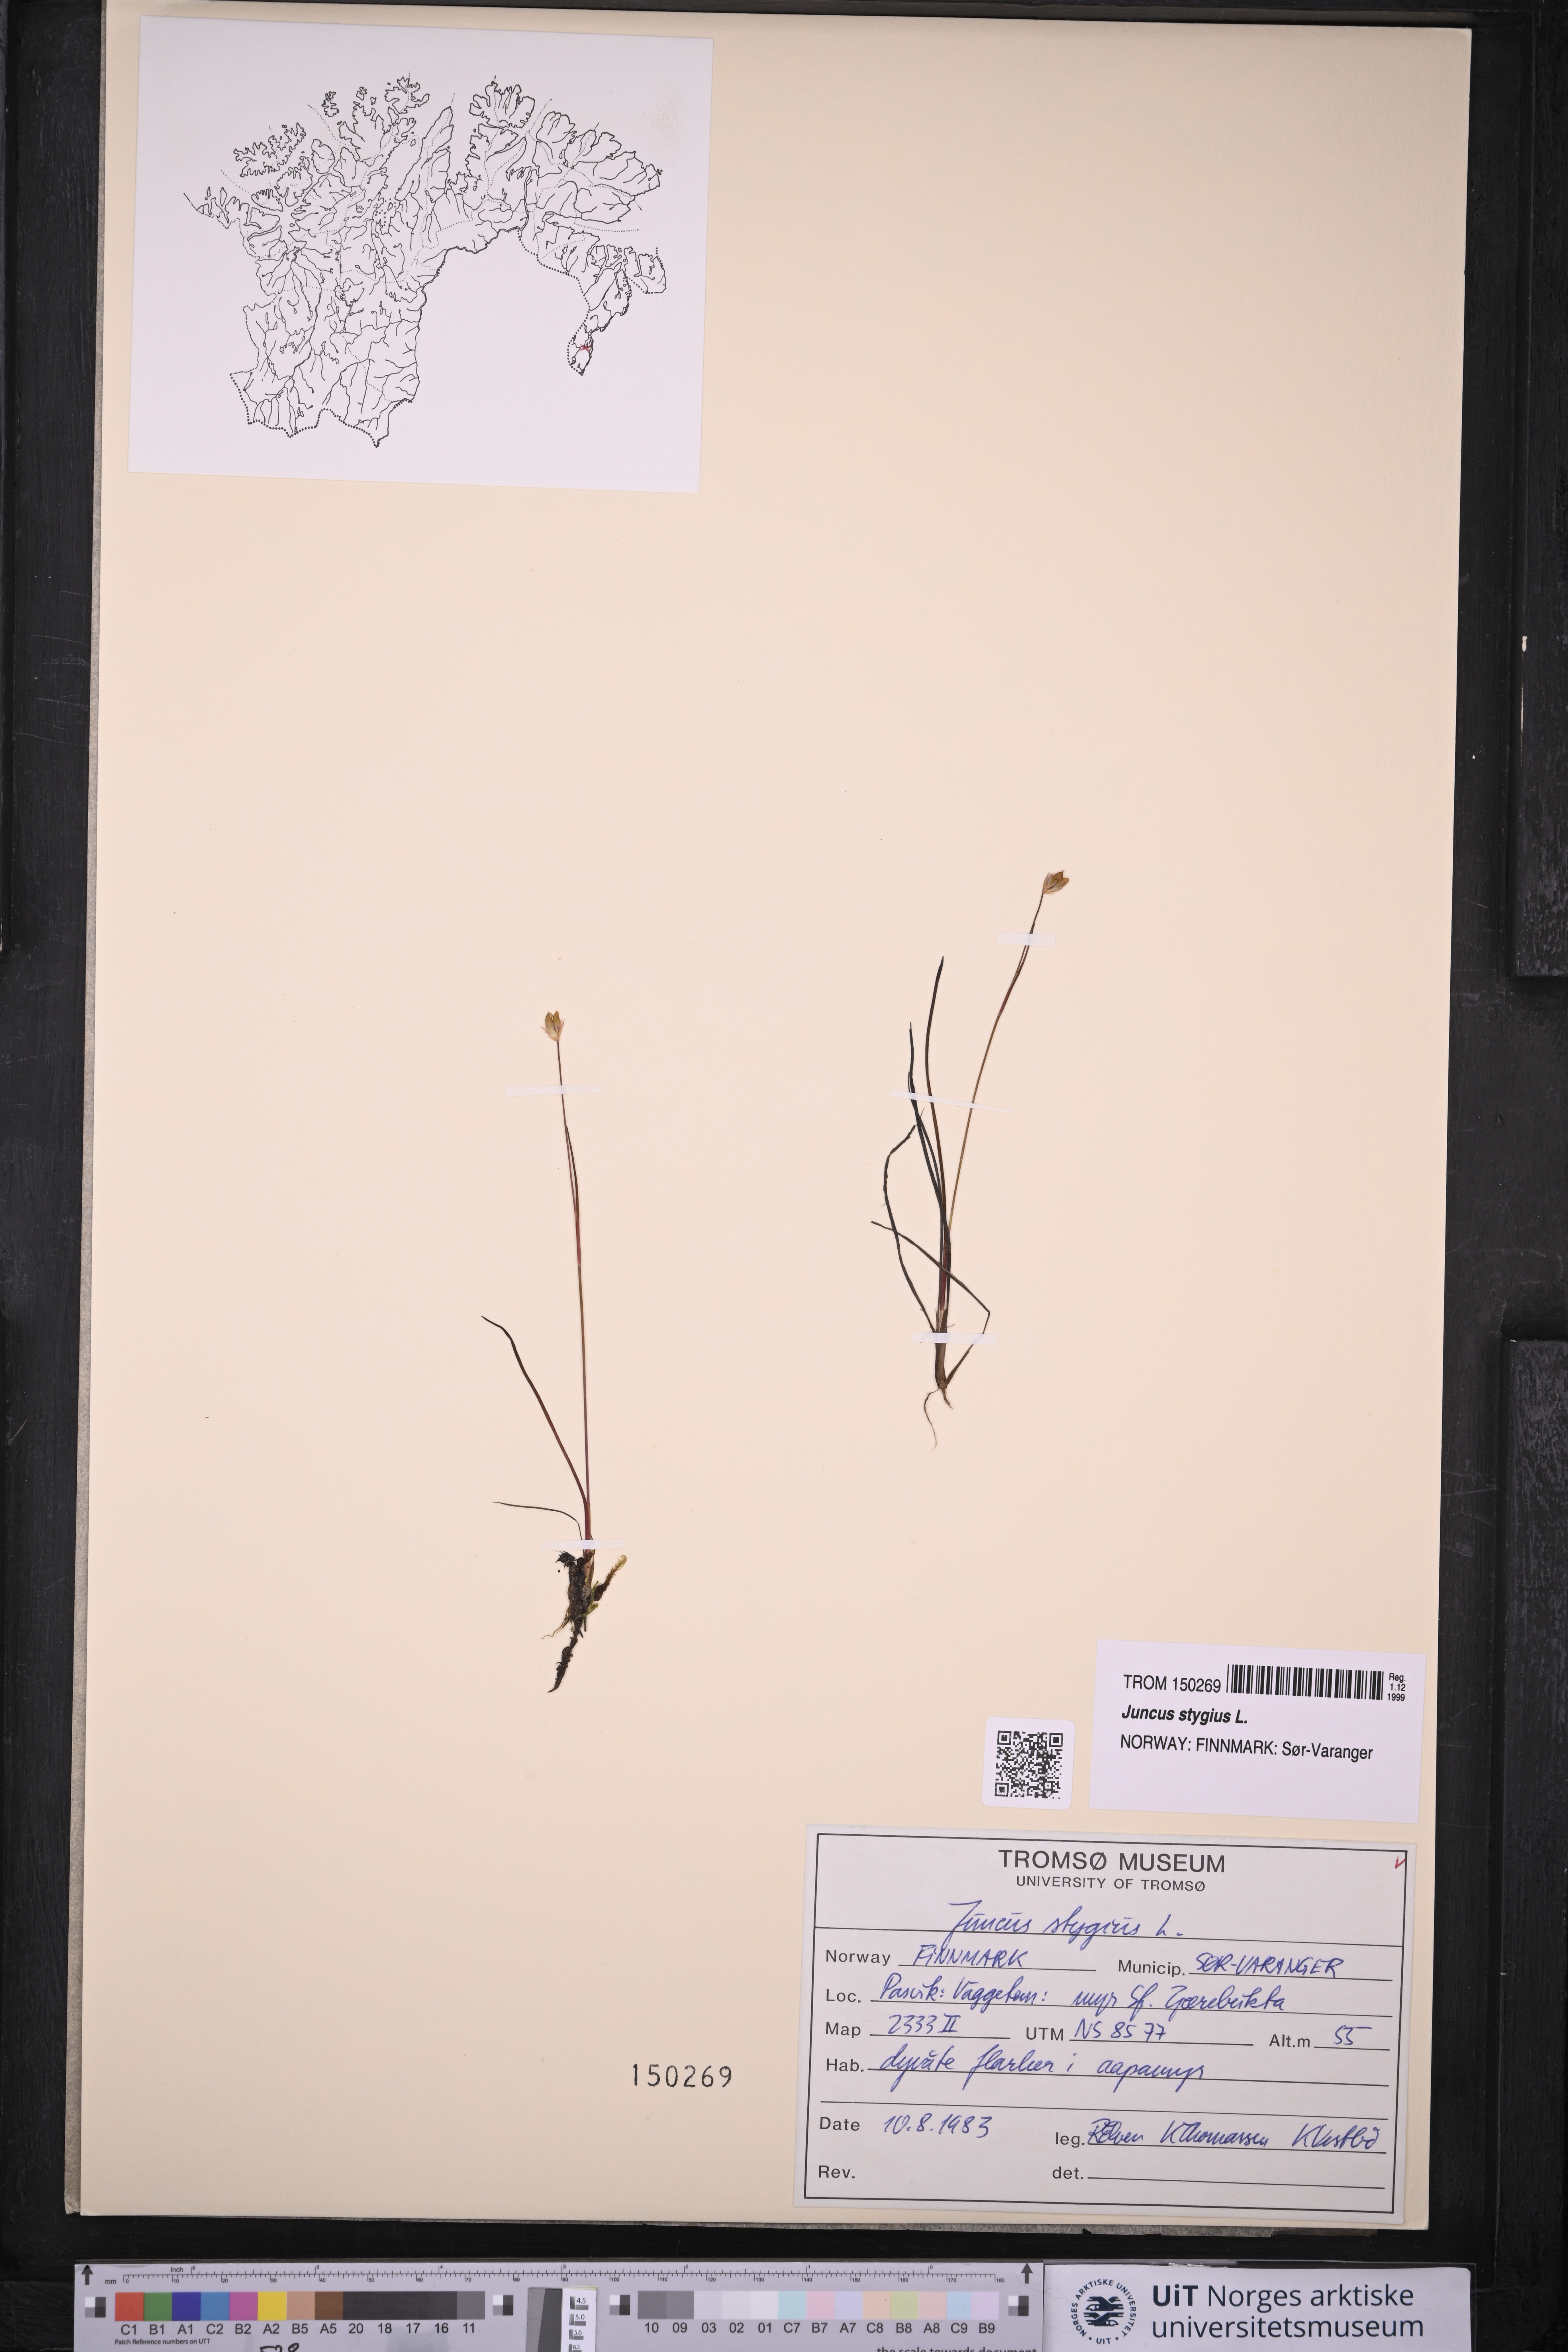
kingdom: Plantae
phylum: Tracheophyta
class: Liliopsida
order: Poales
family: Juncaceae
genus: Juncus
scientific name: Juncus stygius
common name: Bog rush
